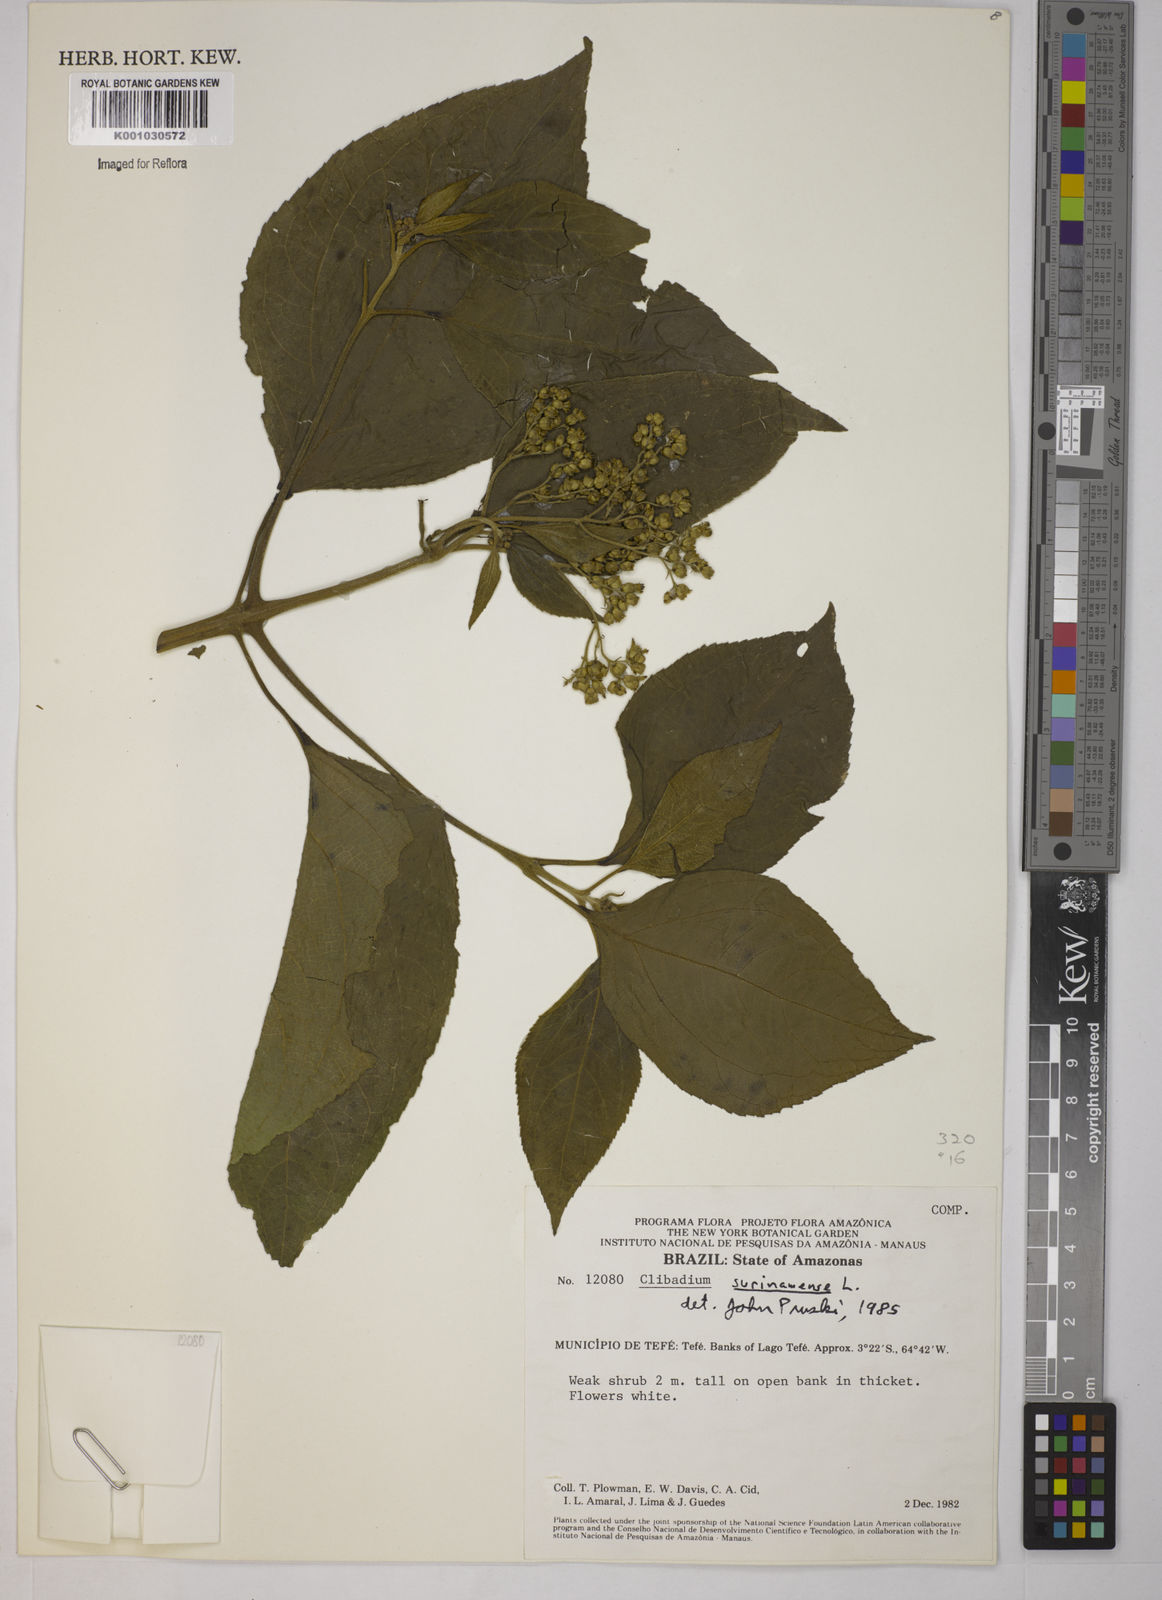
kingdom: Plantae
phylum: Tracheophyta
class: Magnoliopsida
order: Asterales
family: Asteraceae
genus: Clibadium
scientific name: Clibadium
